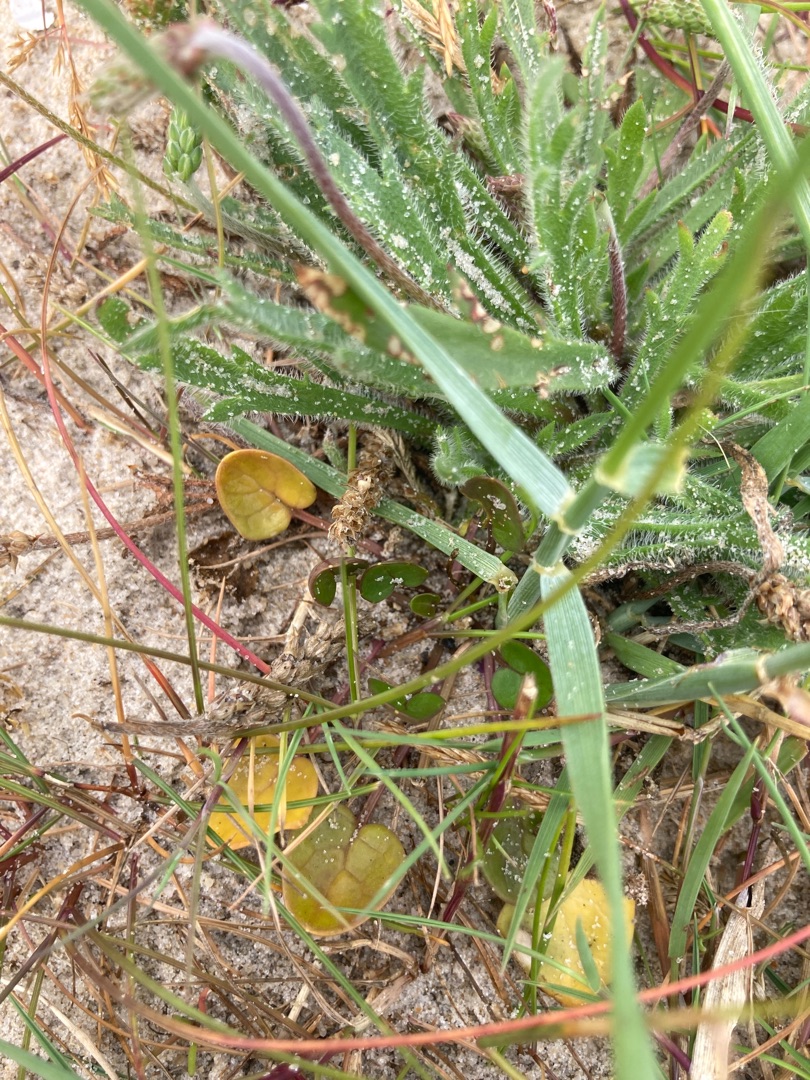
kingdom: Plantae
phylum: Tracheophyta
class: Magnoliopsida
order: Brassicales
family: Brassicaceae
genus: Cochlearia
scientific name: Cochlearia danica
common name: Dansk kokleare
